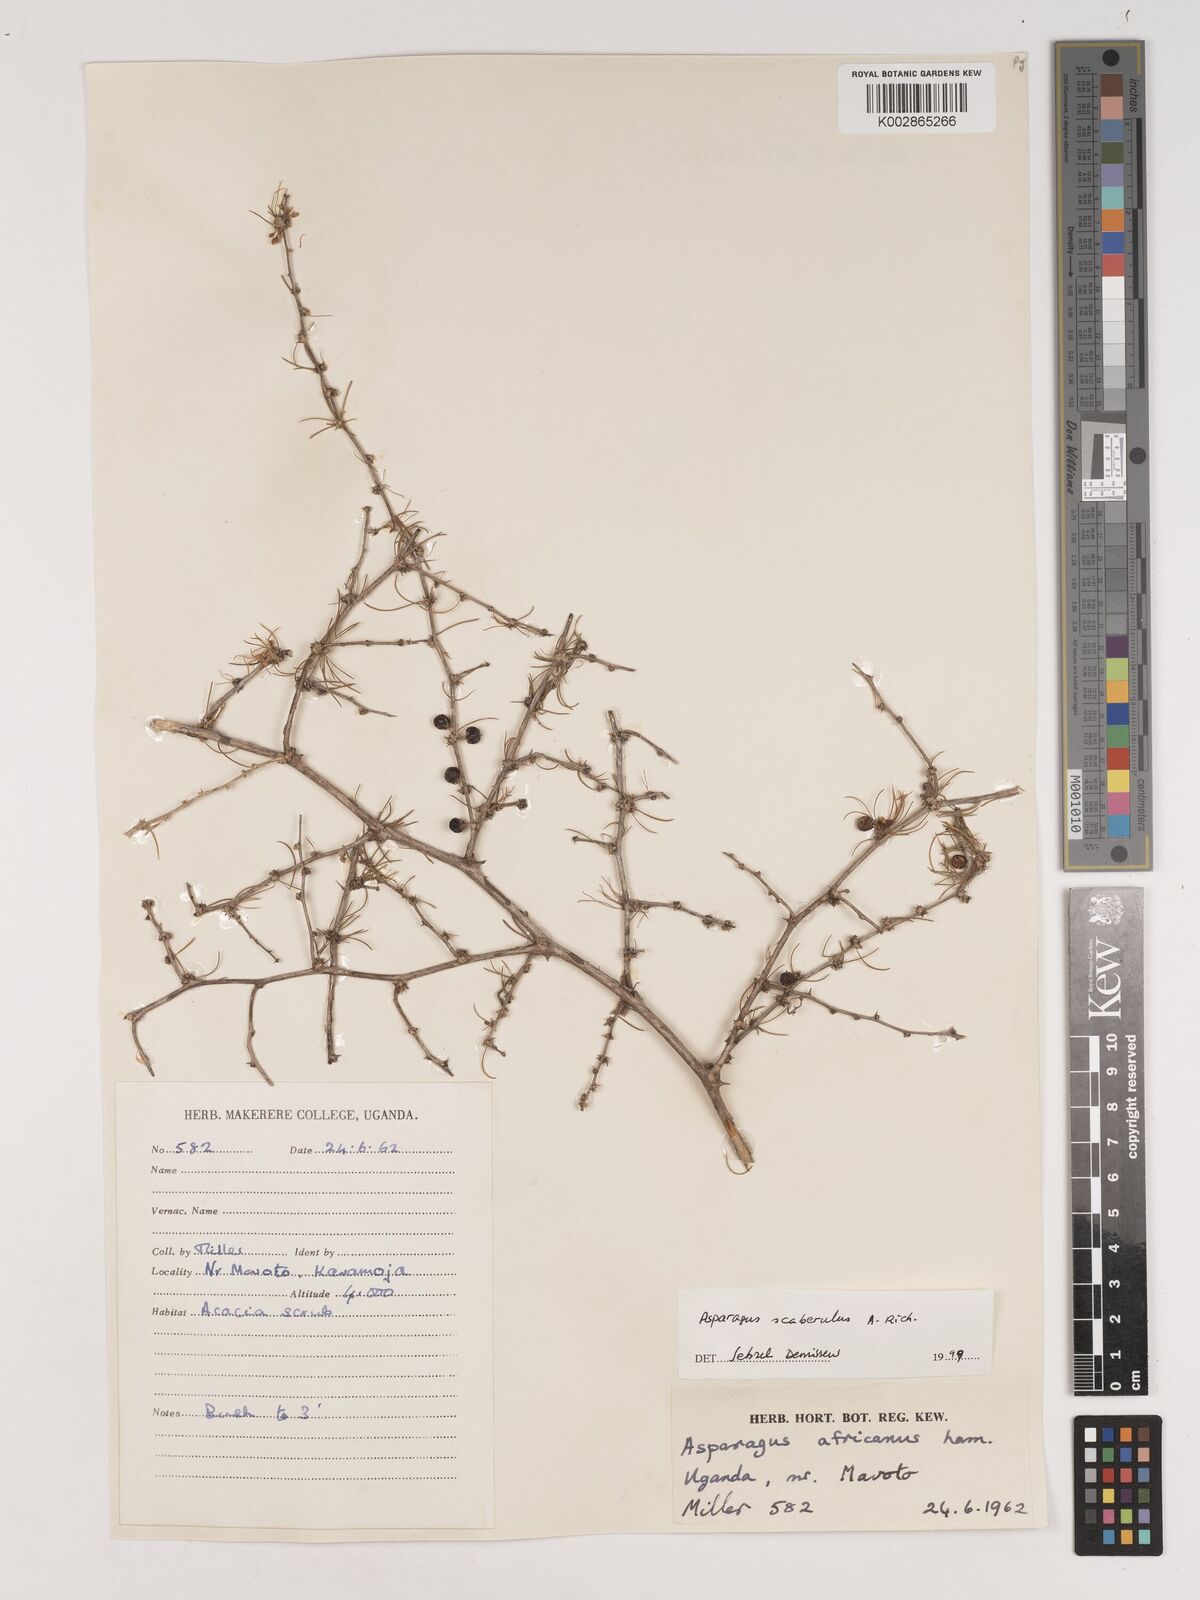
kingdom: Plantae
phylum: Tracheophyta
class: Liliopsida
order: Asparagales
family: Asparagaceae
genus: Asparagus
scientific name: Asparagus scaberulus
